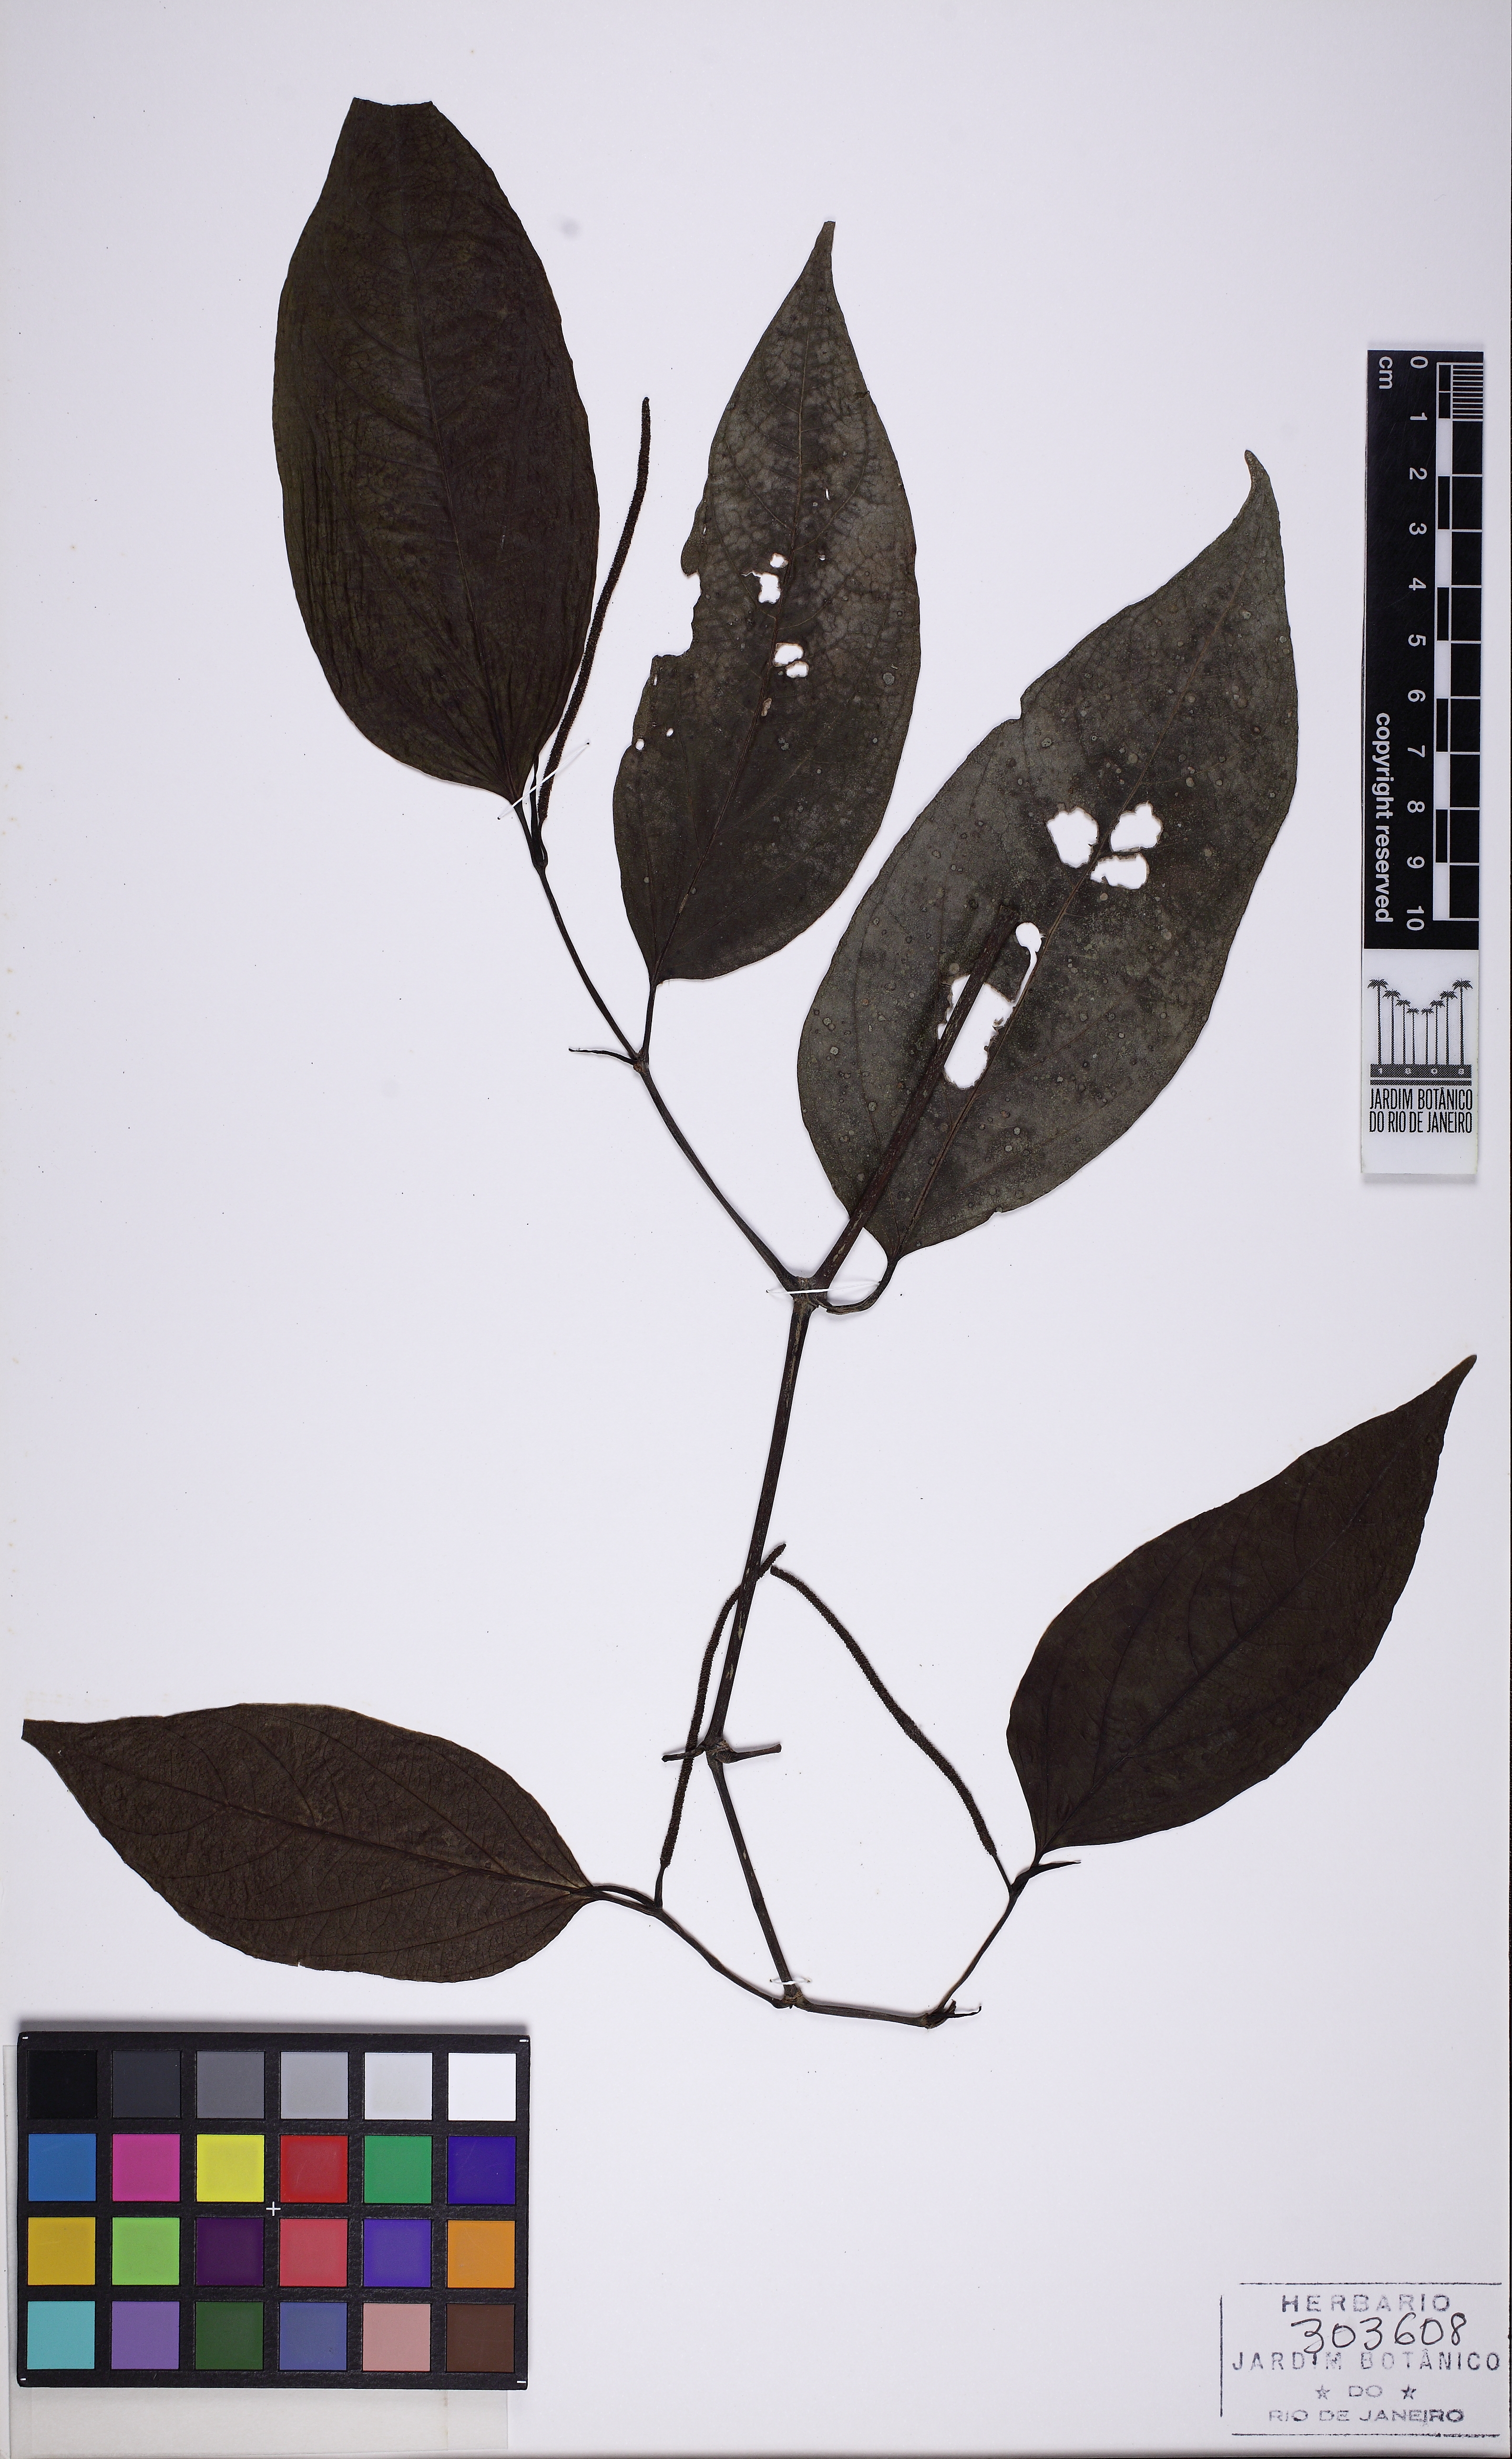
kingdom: Plantae
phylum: Tracheophyta
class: Magnoliopsida
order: Piperales
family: Piperaceae
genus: Piper
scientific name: Piper lepturum
